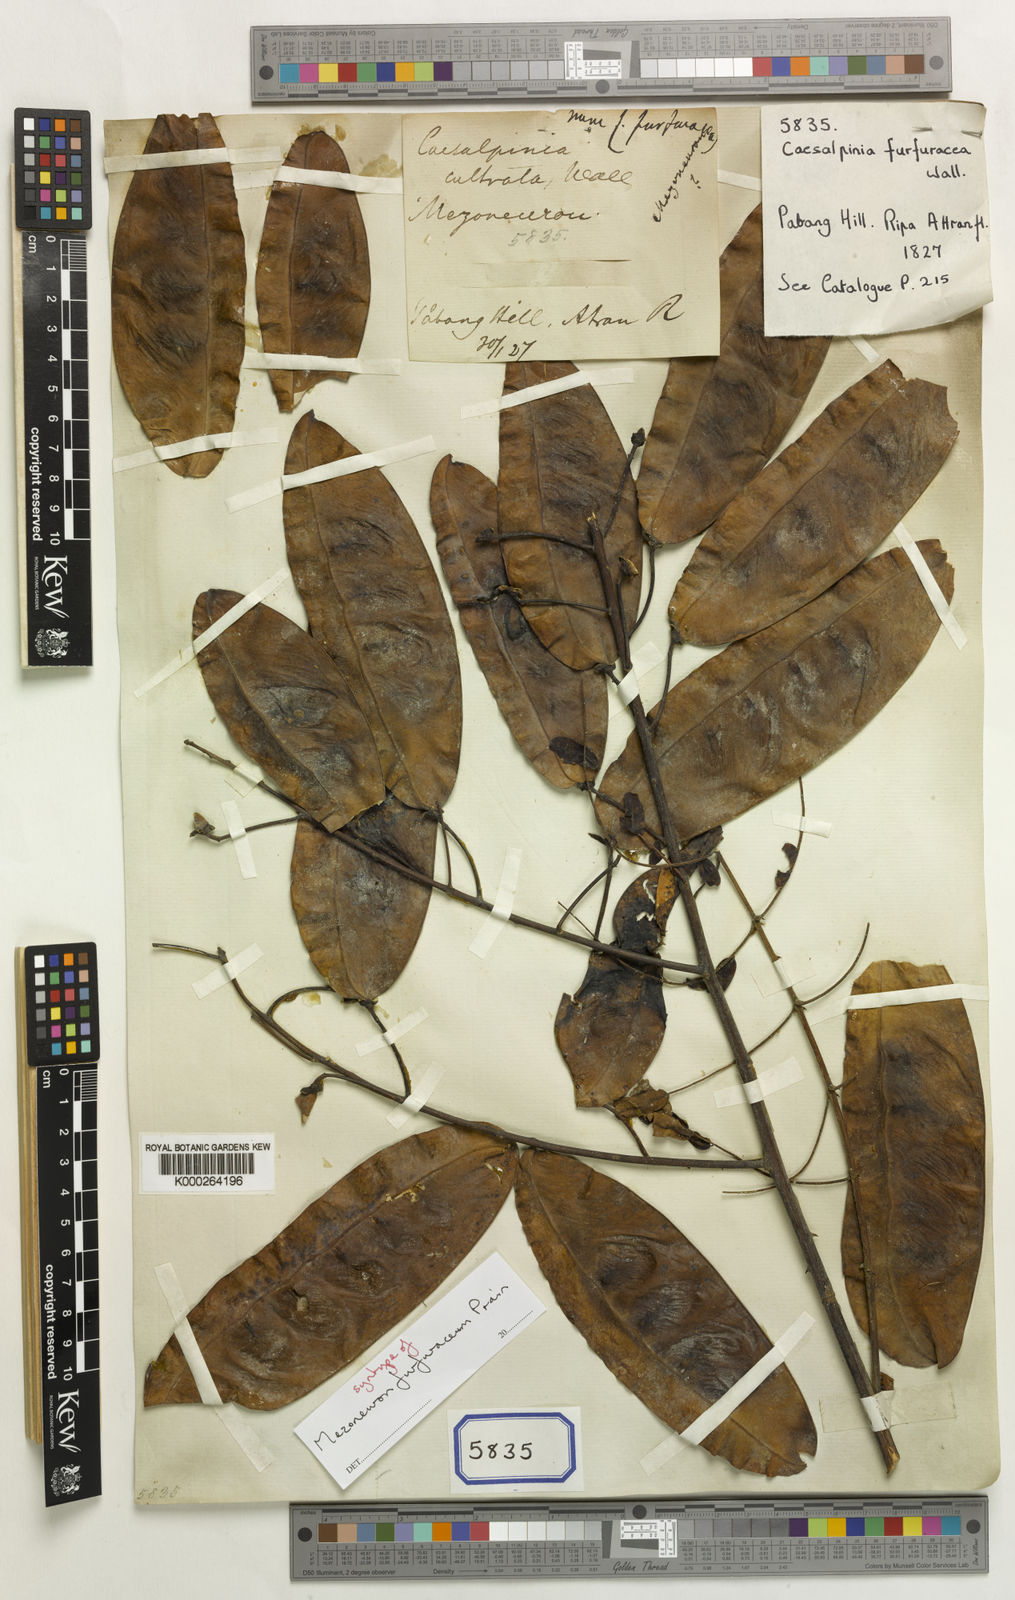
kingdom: Plantae
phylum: Tracheophyta
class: Magnoliopsida
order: Fabales
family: Fabaceae
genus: Caesalpinia
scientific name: Caesalpinia
